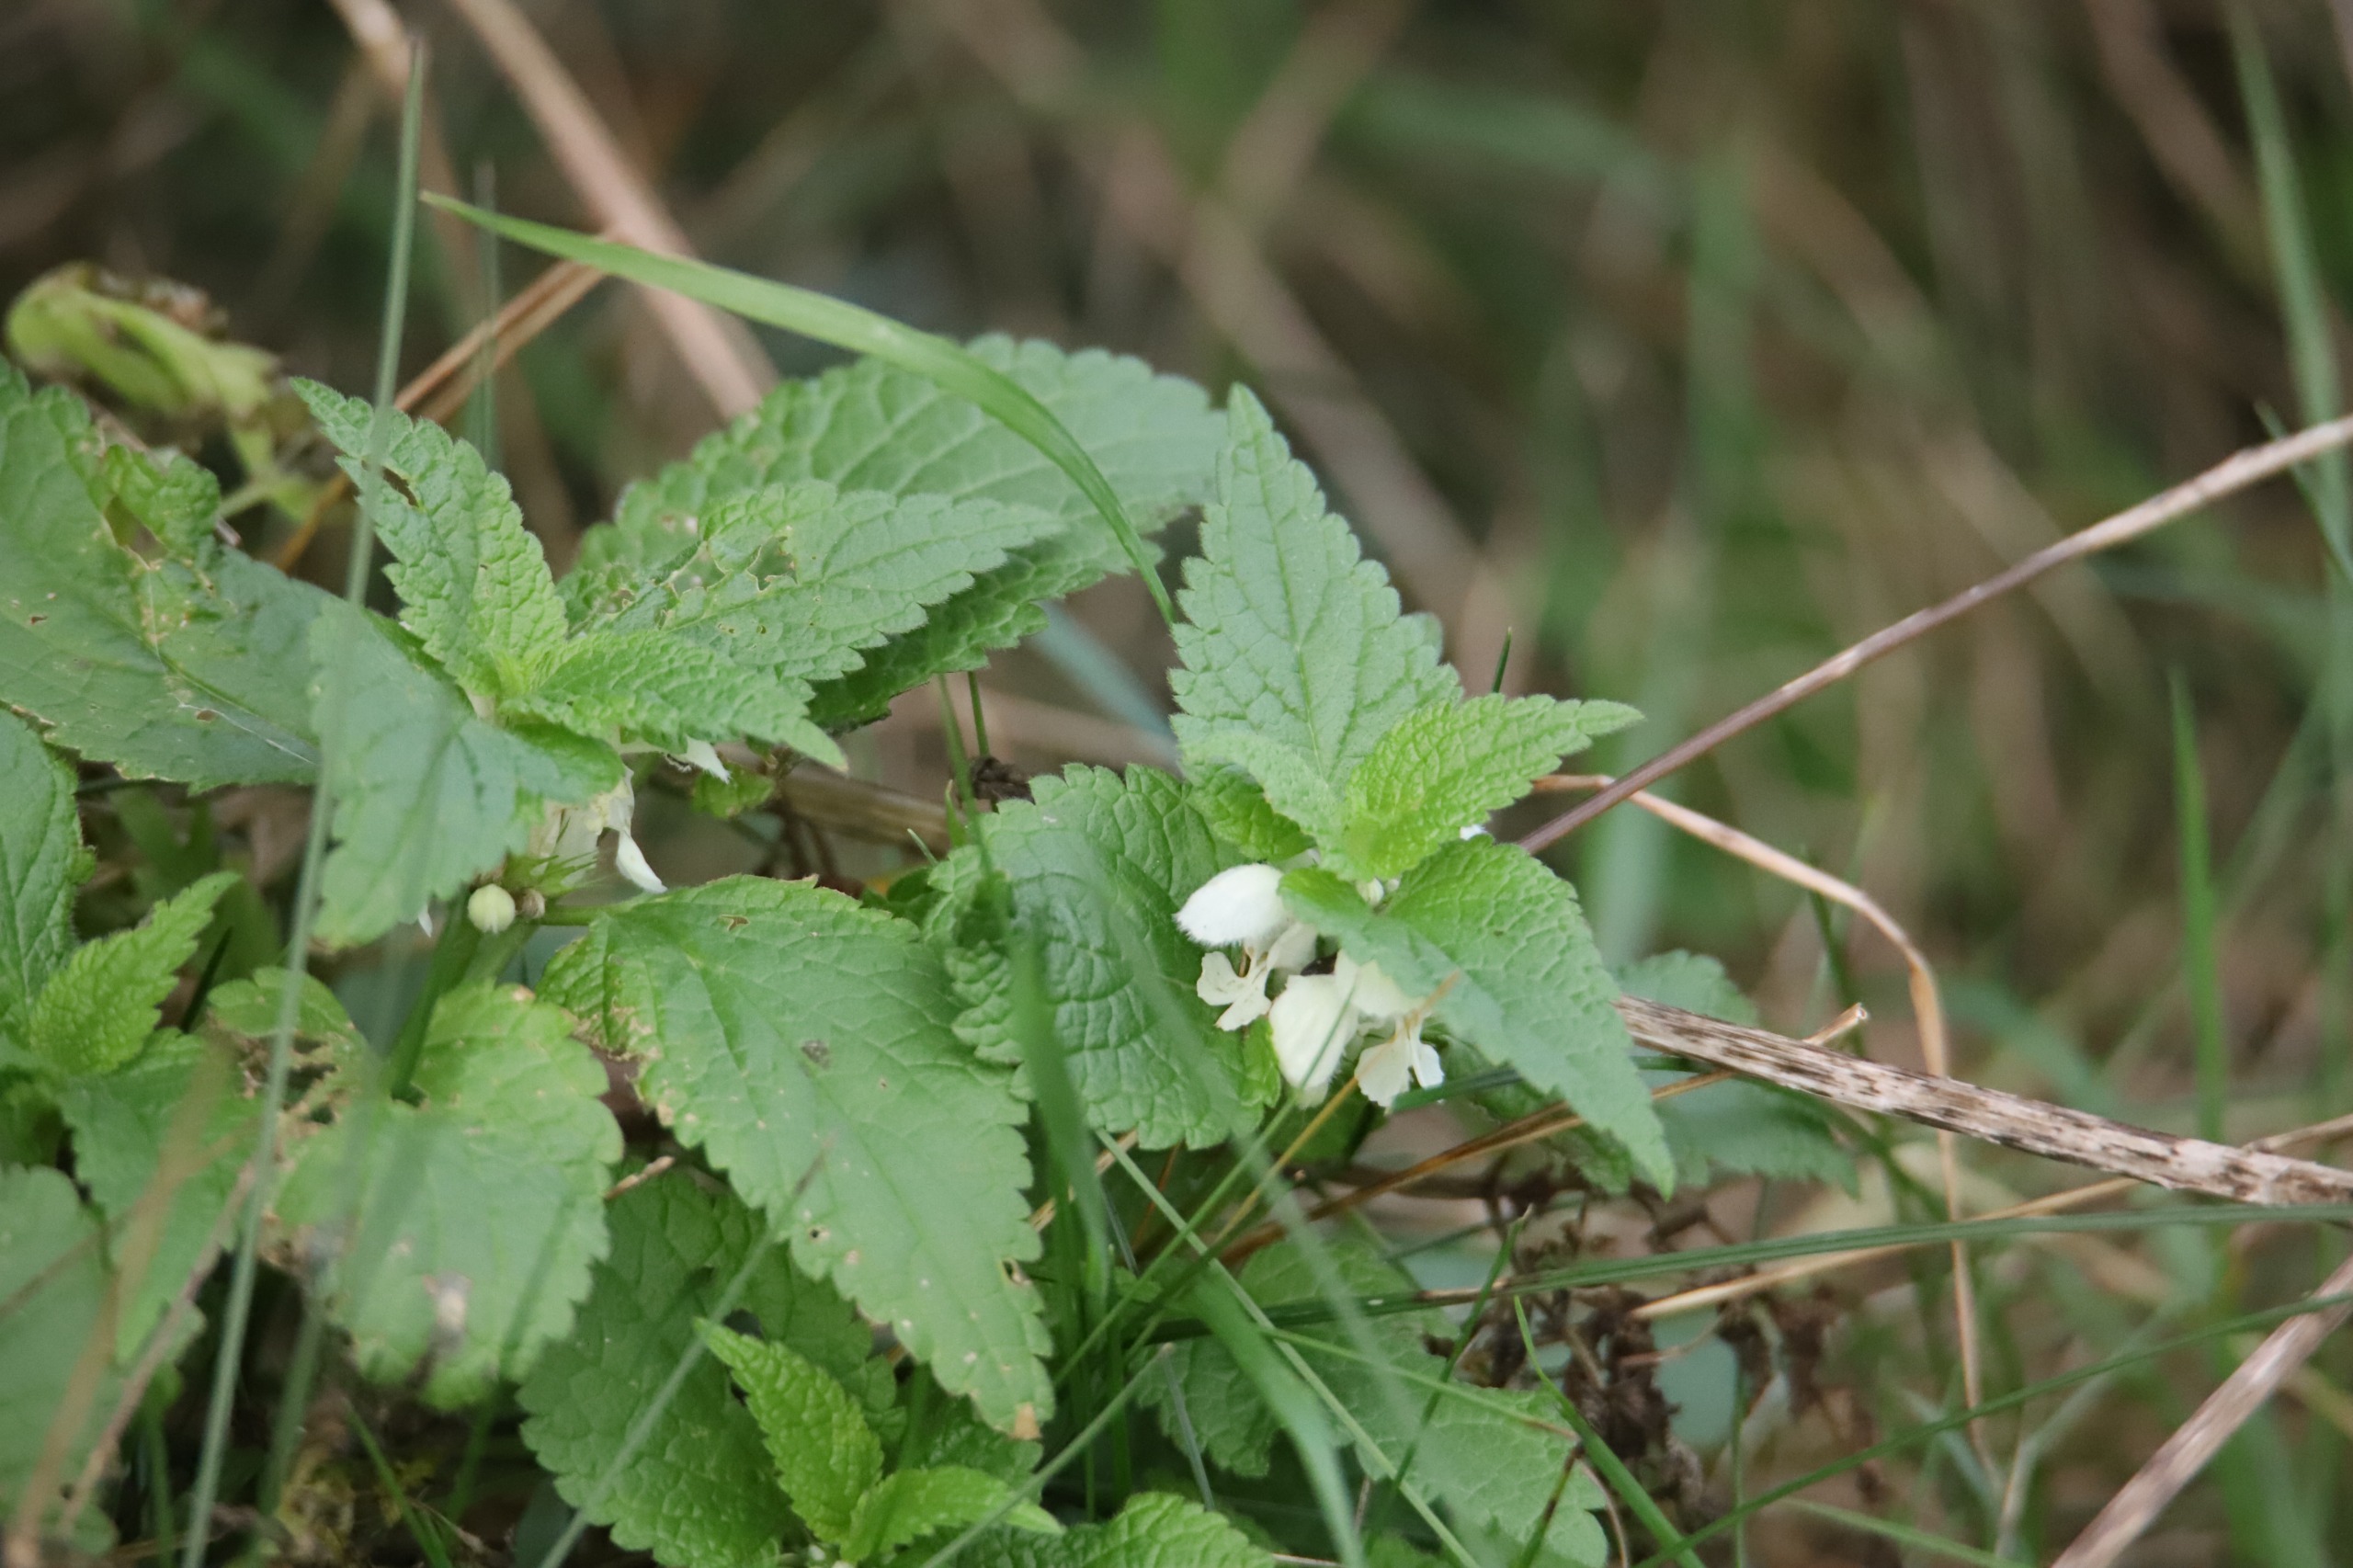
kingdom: Plantae
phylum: Tracheophyta
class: Magnoliopsida
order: Lamiales
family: Lamiaceae
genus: Lamium
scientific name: Lamium album
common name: Døvnælde
